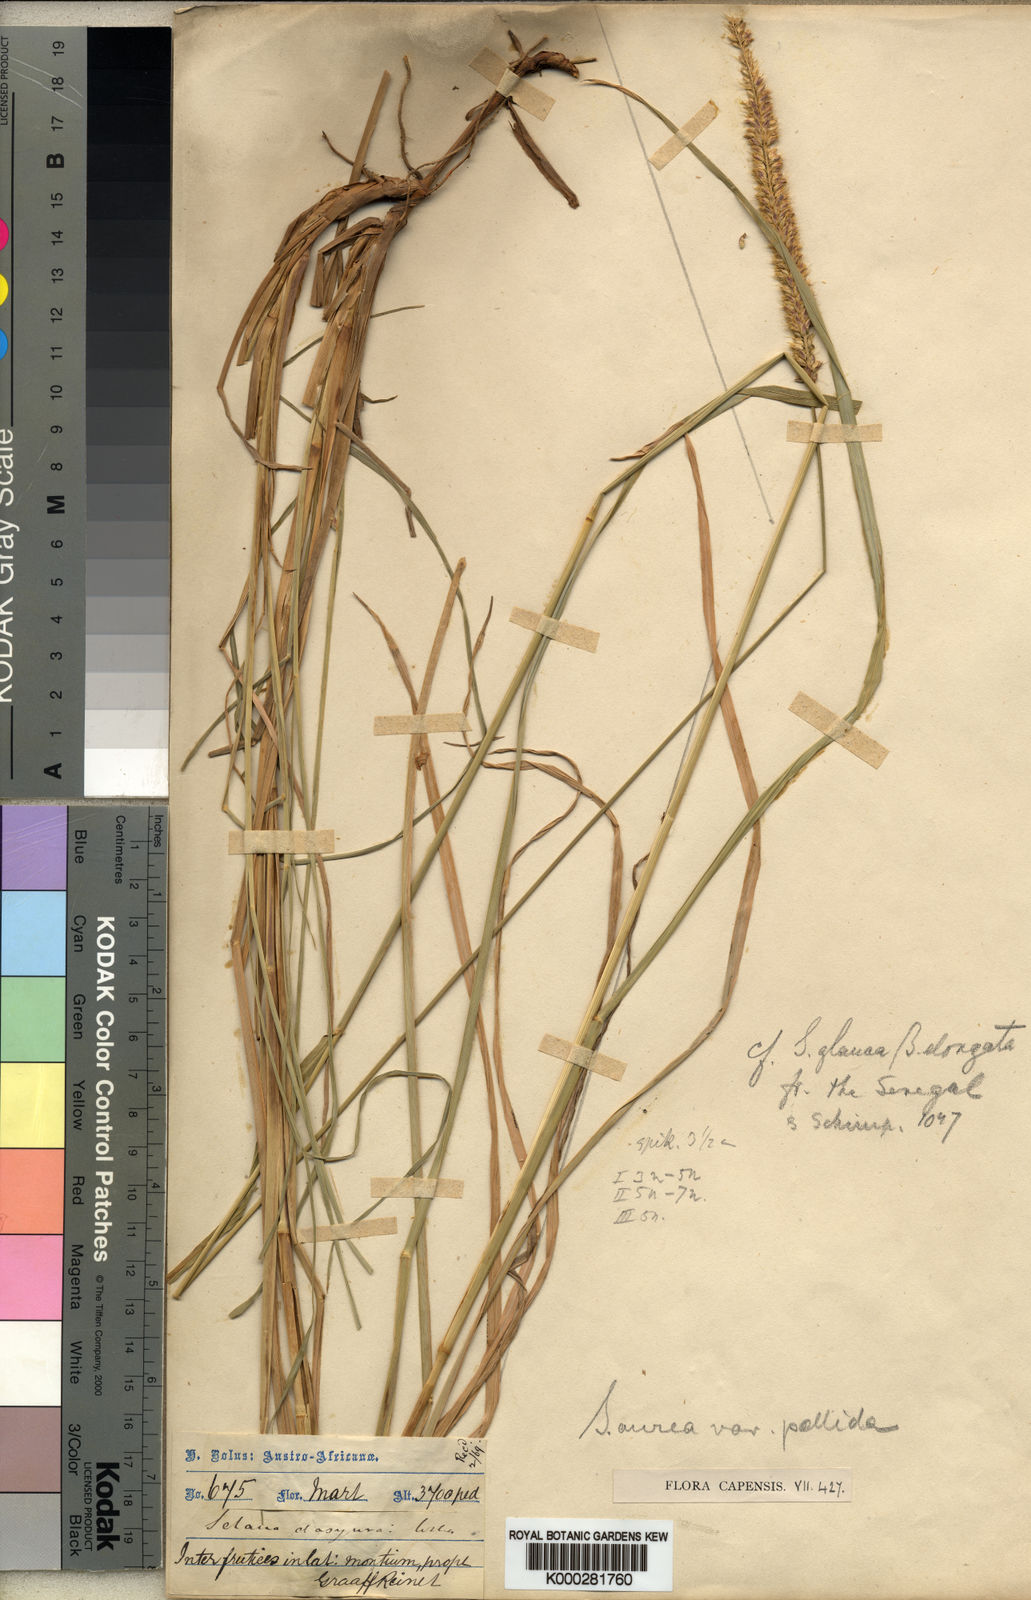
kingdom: Plantae
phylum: Tracheophyta
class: Liliopsida
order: Poales
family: Poaceae
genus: Setaria
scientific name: Setaria sphacelata
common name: African bristlegrass
